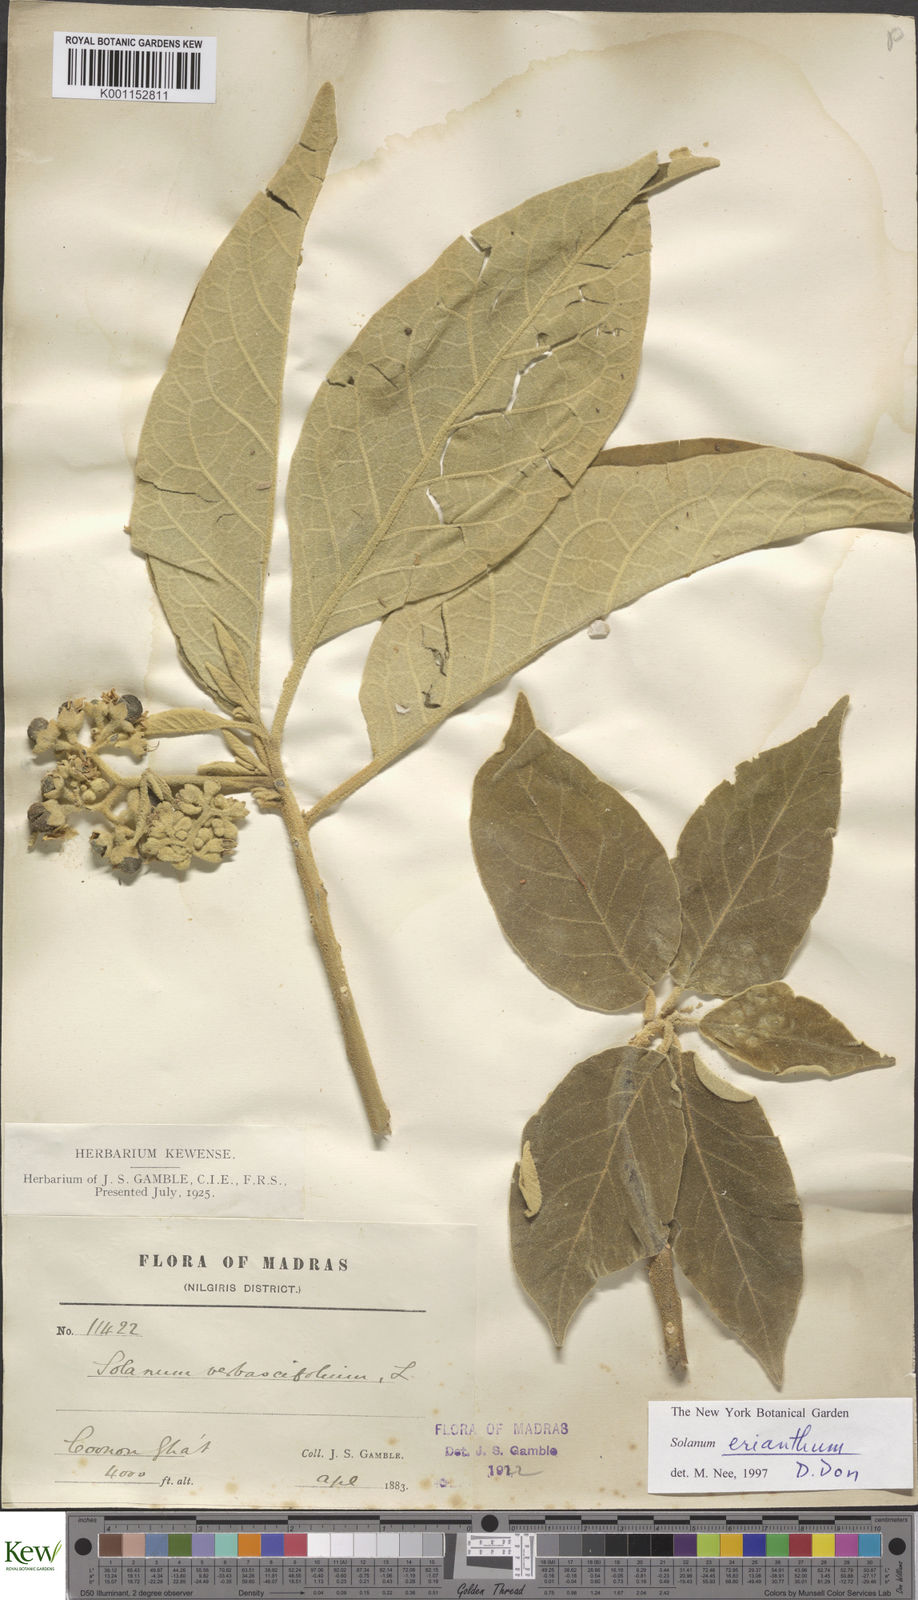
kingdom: Plantae
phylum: Tracheophyta
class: Magnoliopsida
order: Solanales
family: Solanaceae
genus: Solanum
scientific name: Solanum erianthum
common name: Tobacco-tree
